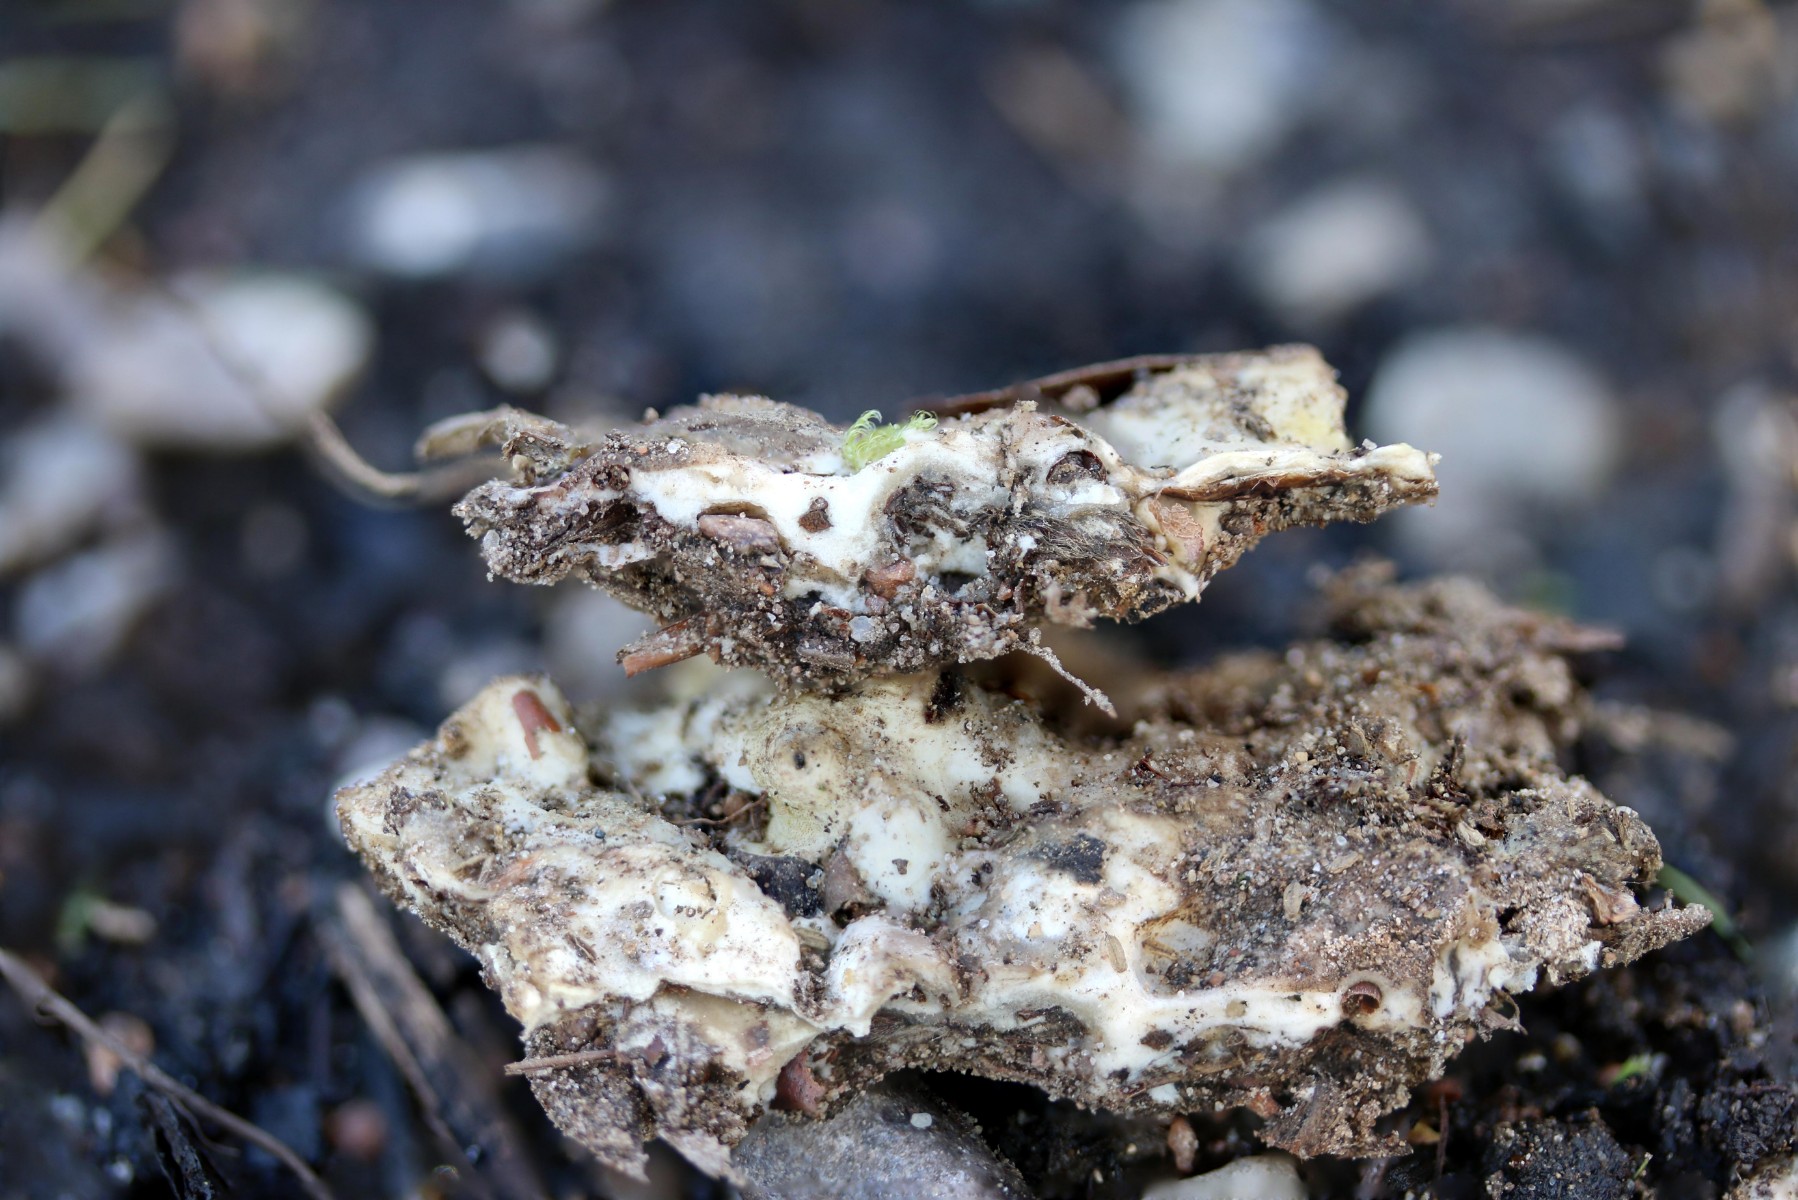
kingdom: Fungi
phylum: Ascomycota
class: Sordariomycetes
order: Hypocreales
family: Hypocreaceae
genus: Trichoderma
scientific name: Trichoderma citrinum
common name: udbredt kødkerne
